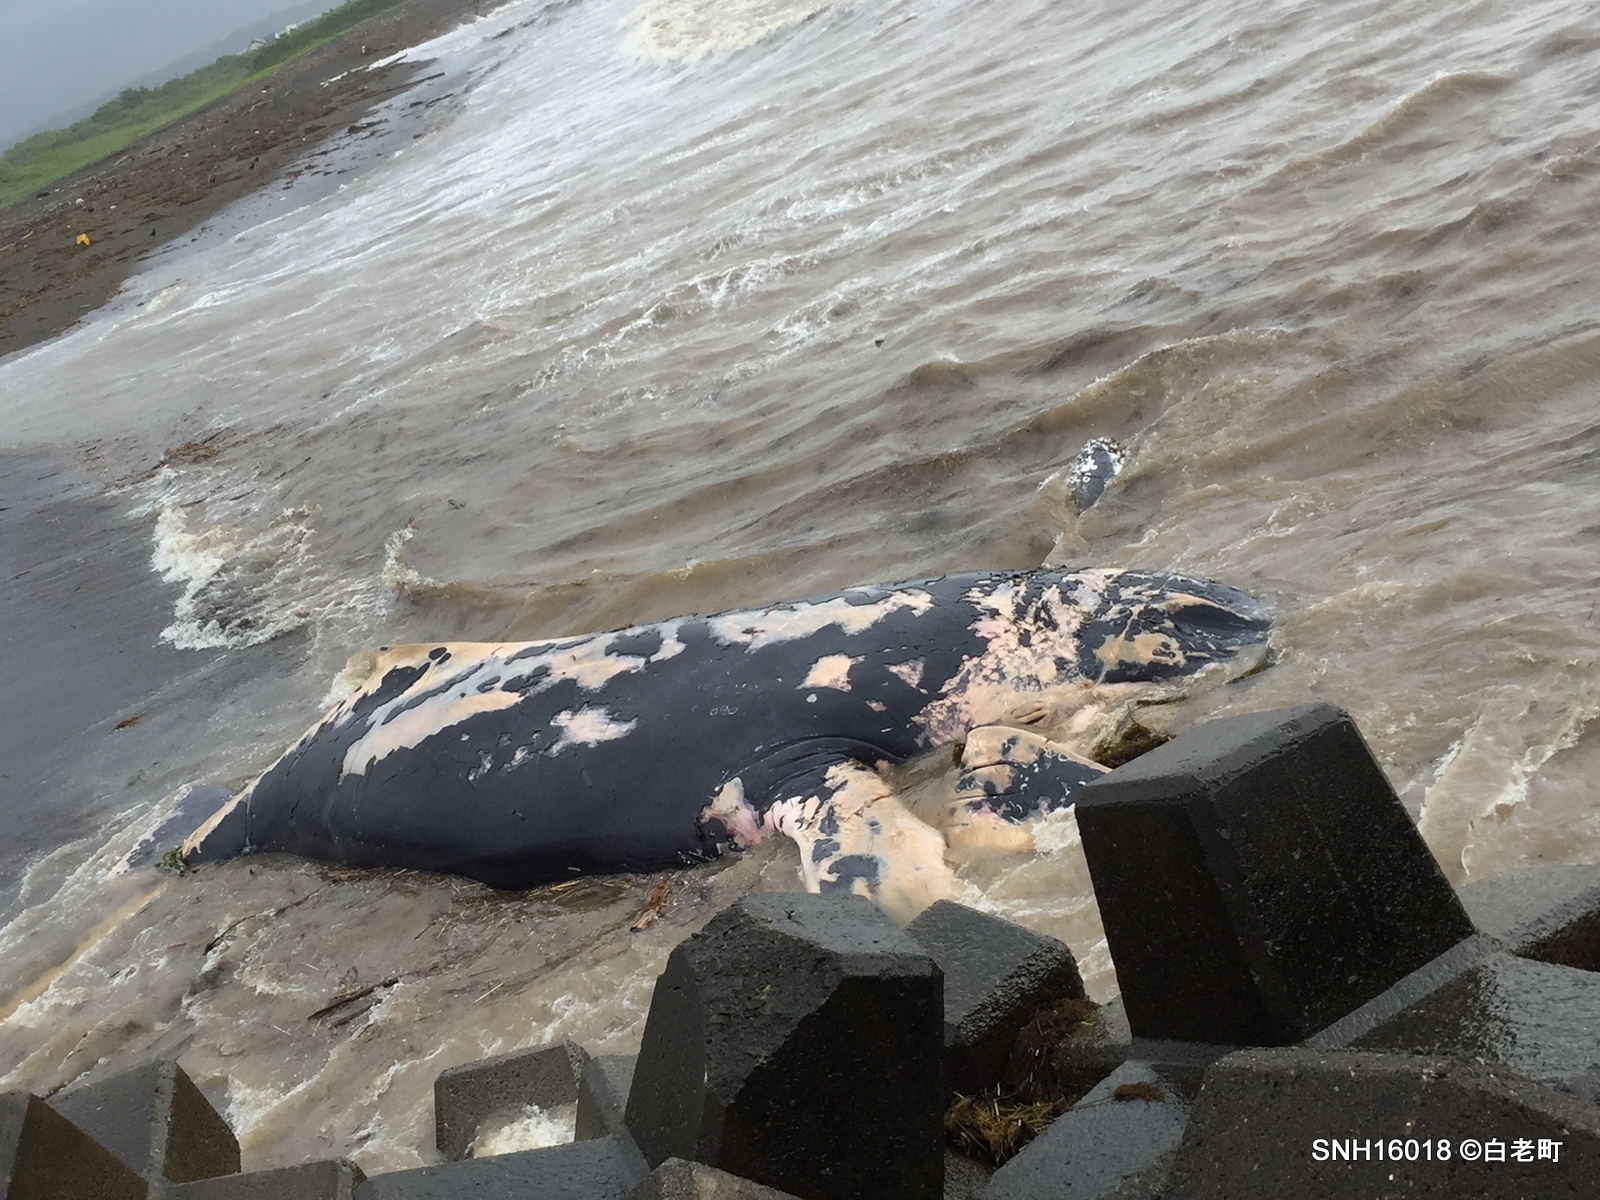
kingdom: Animalia
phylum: Chordata
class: Mammalia
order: Cetacea
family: Balaenopteridae
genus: Megaptera
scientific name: Megaptera novaeangliae
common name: Humpback whale
